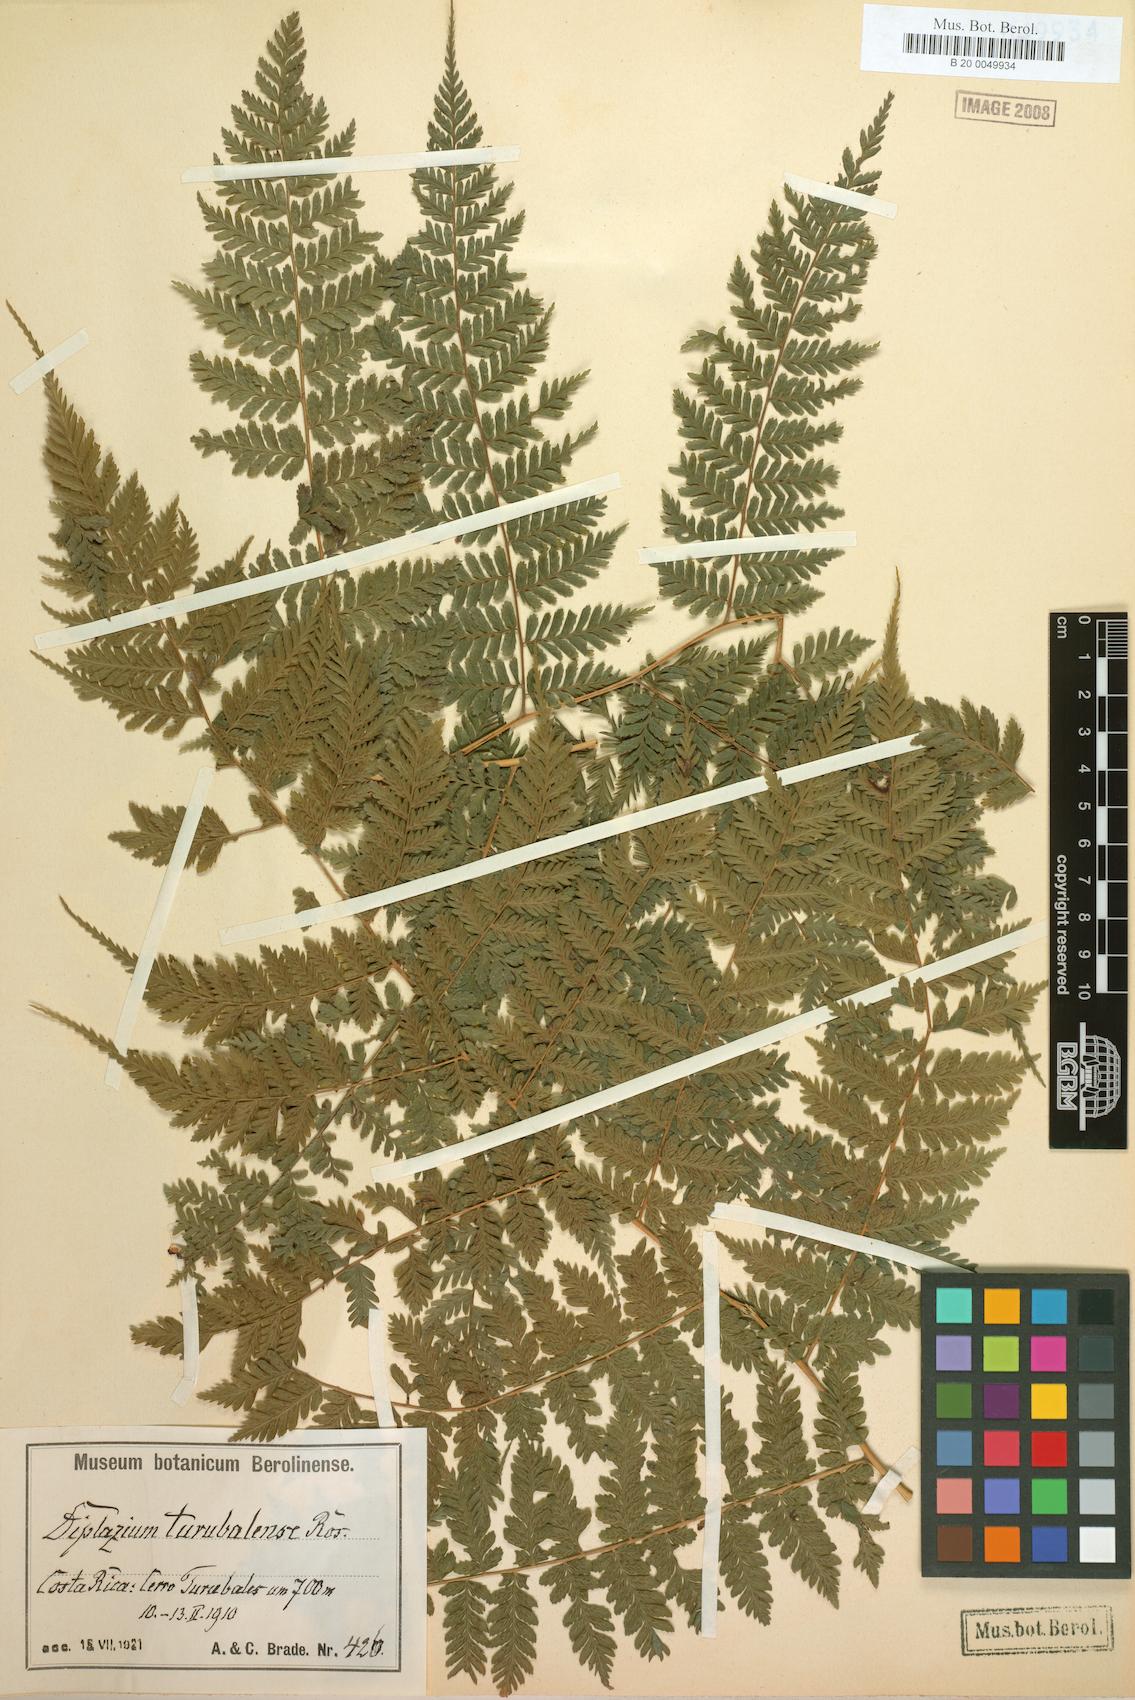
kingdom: Plantae
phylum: Tracheophyta
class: Polypodiopsida
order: Polypodiales
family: Athyriaceae
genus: Diplazium
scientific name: Diplazium turubalense
